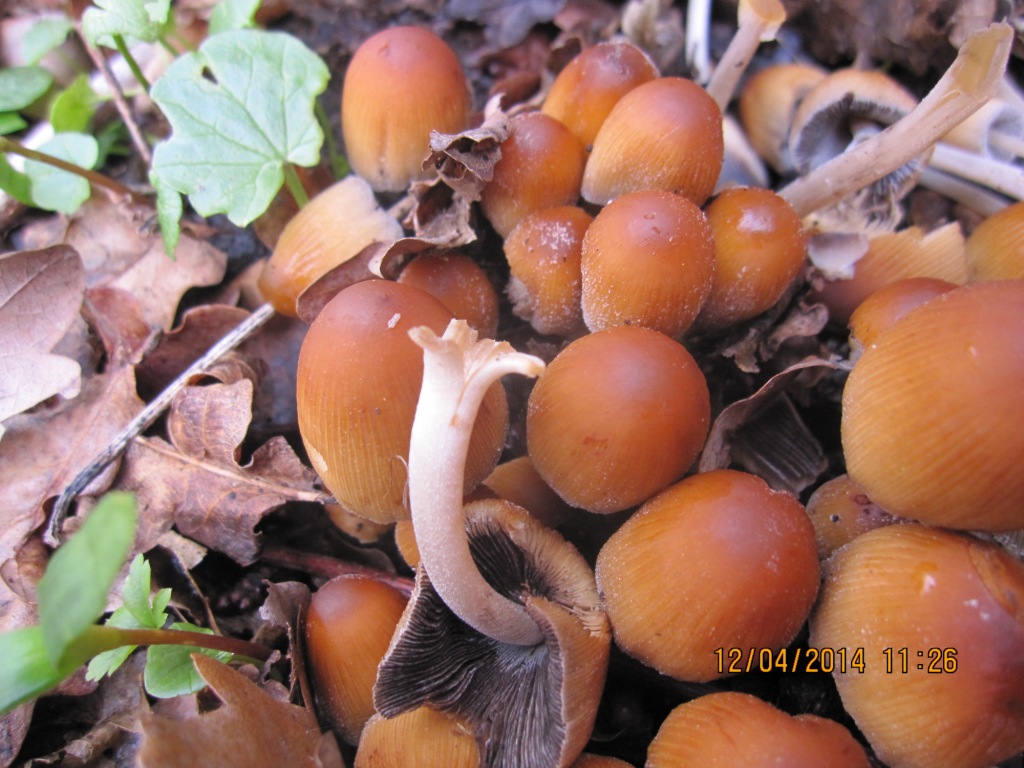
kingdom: Fungi
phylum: Basidiomycota
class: Agaricomycetes
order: Agaricales
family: Psathyrellaceae
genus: Coprinellus
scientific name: Coprinellus micaceus
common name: glimmer-blækhat
